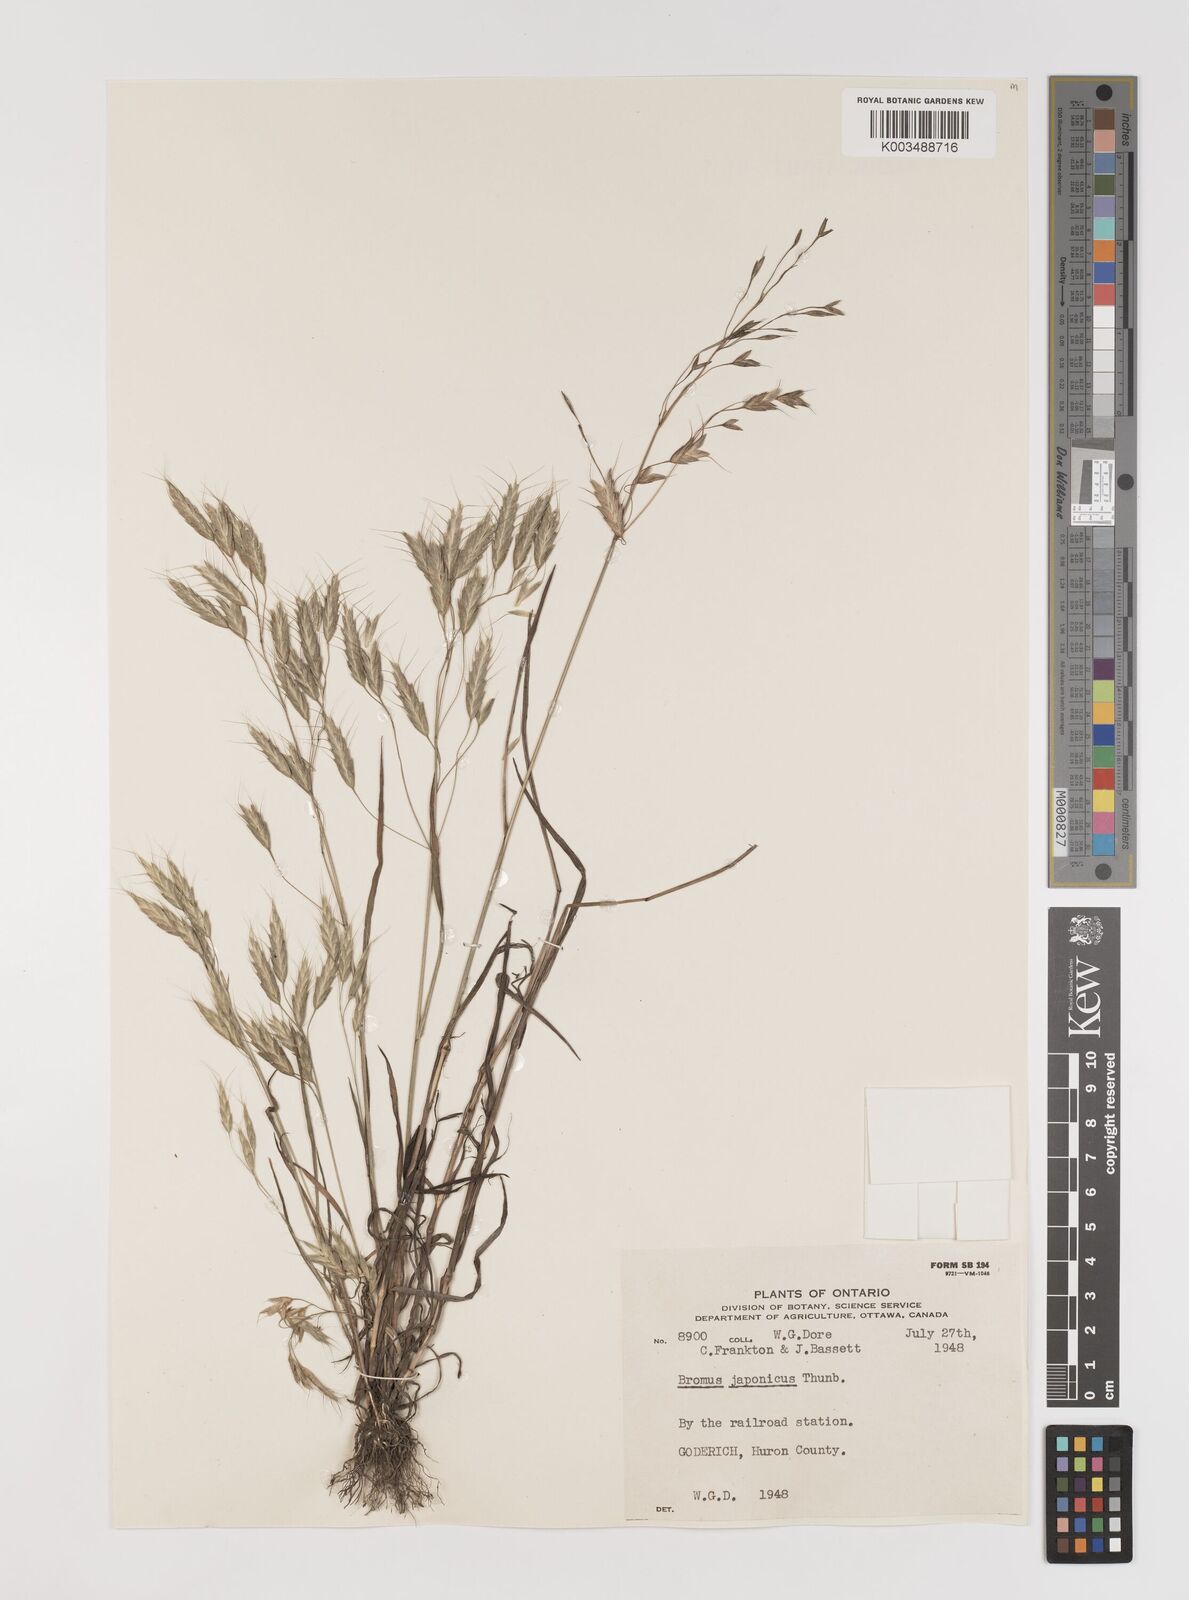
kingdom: Plantae
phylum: Tracheophyta
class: Liliopsida
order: Poales
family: Poaceae
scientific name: Poaceae
